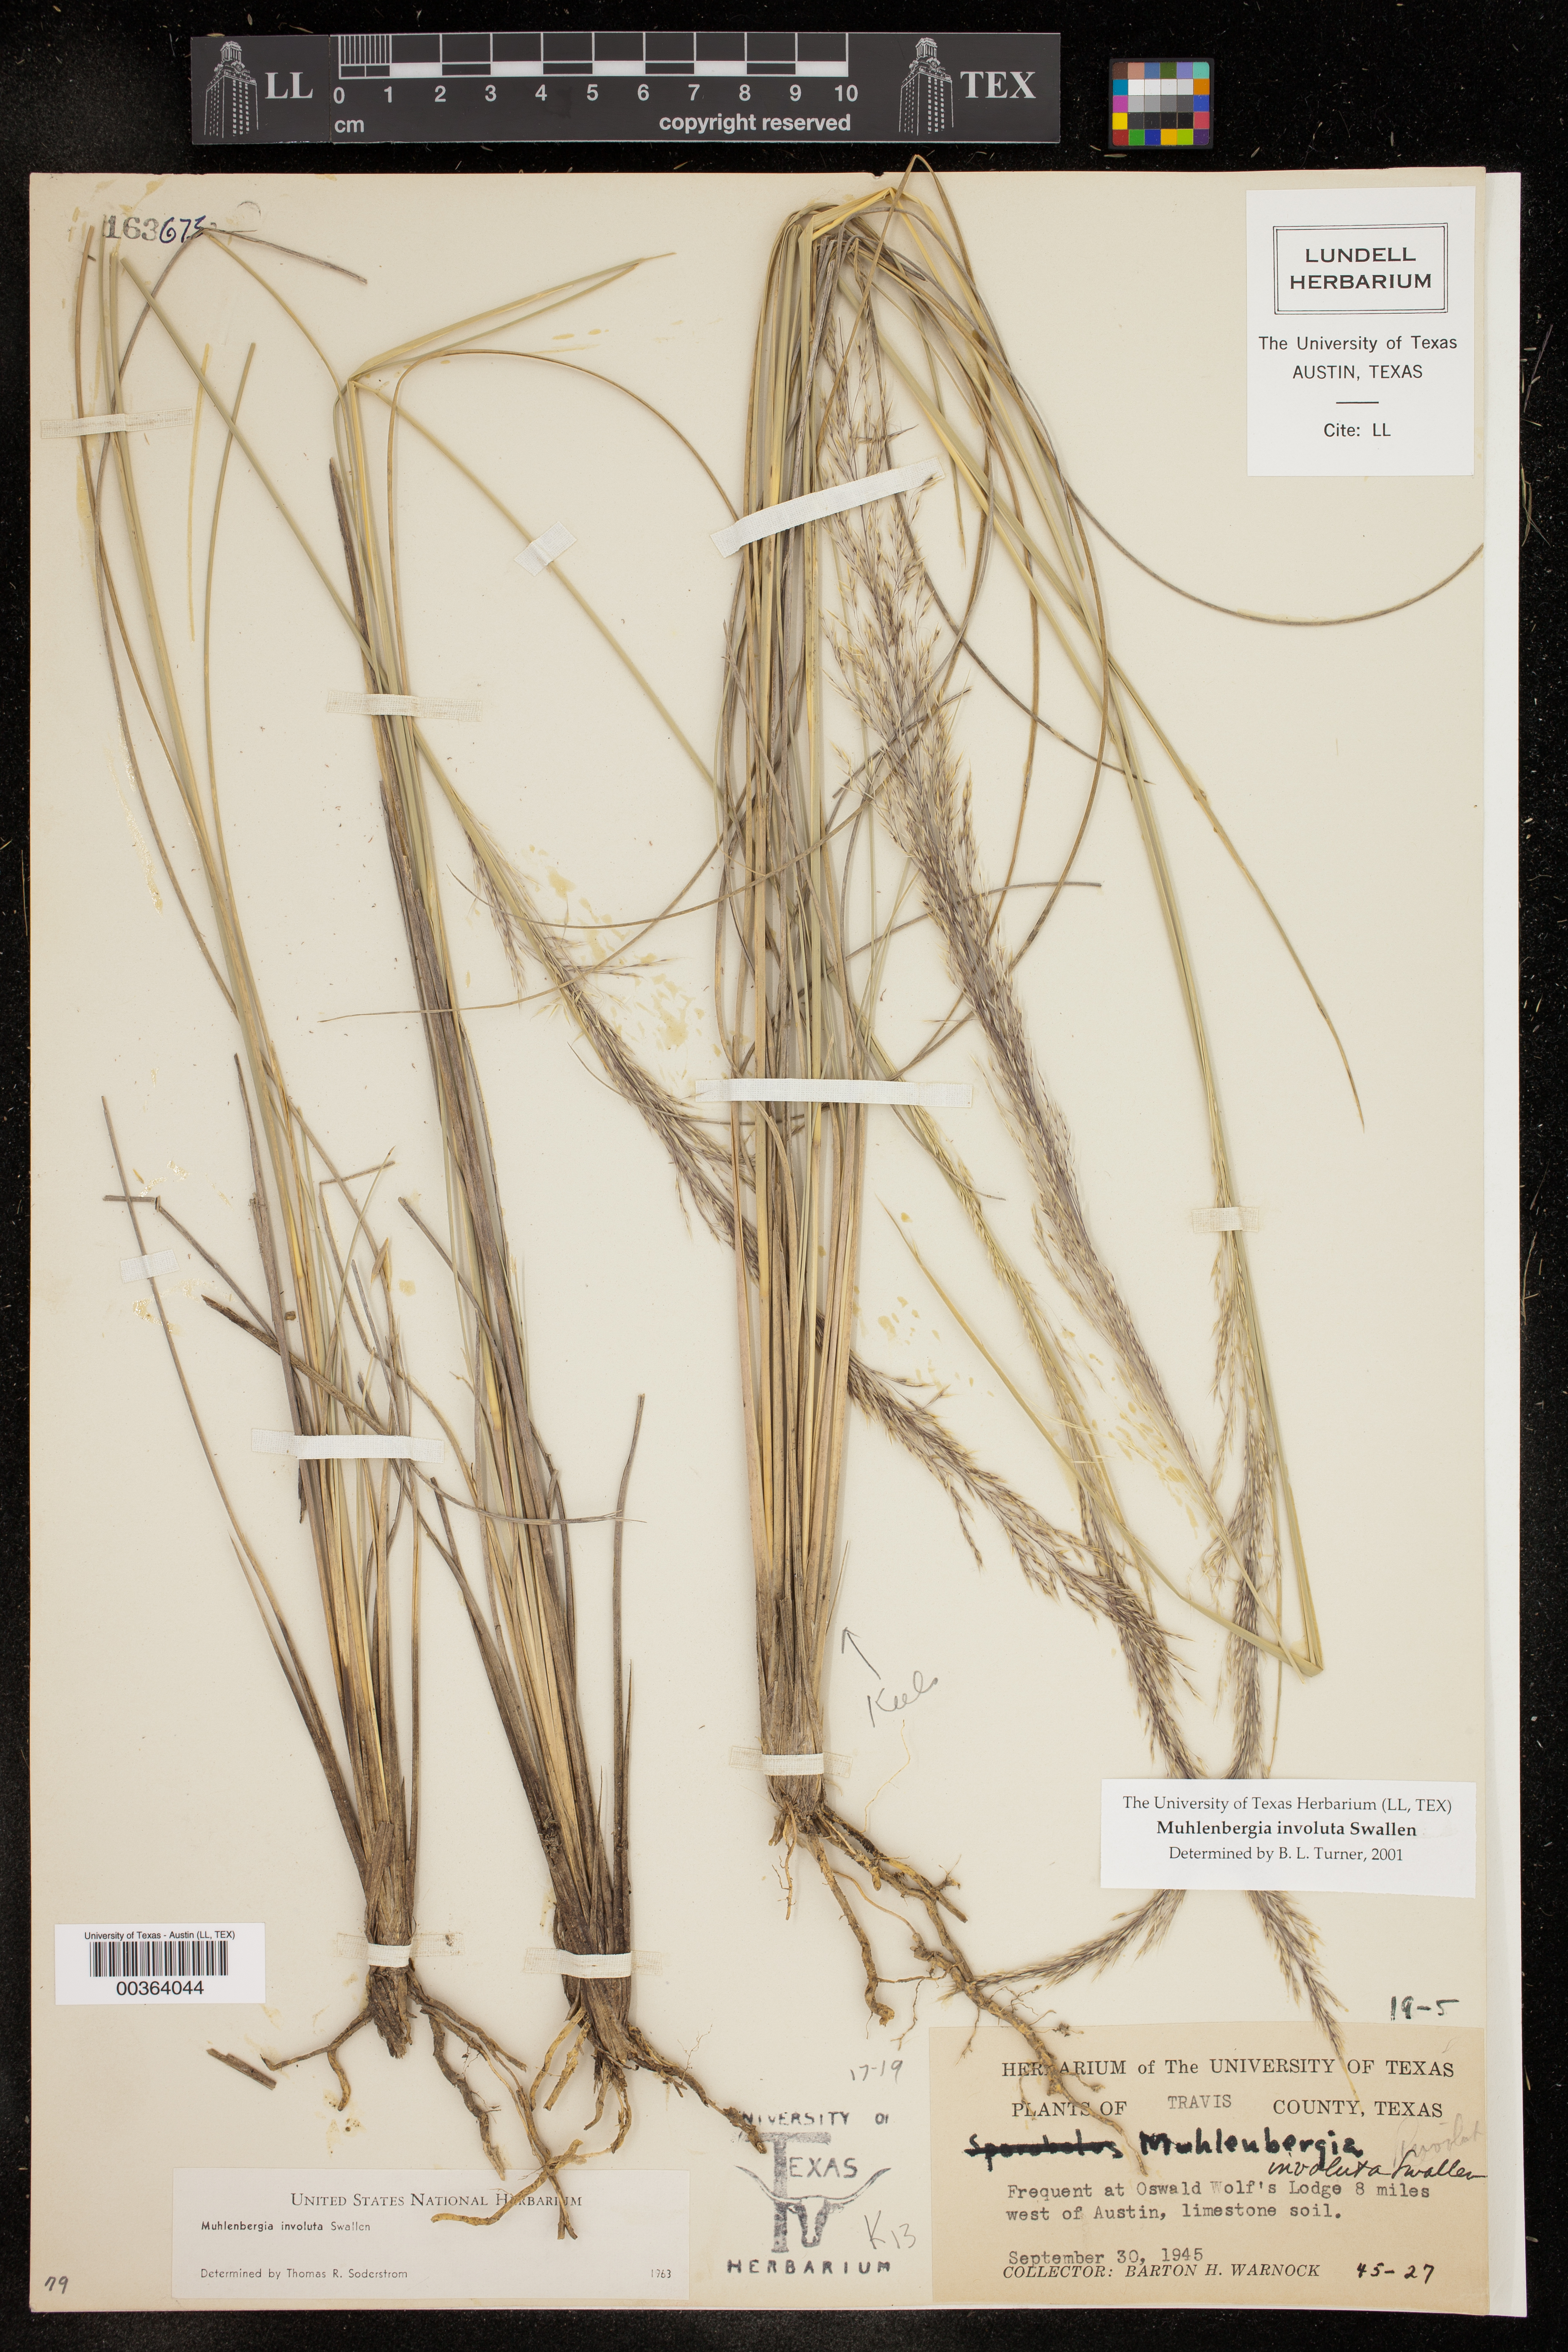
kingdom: Plantae
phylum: Tracheophyta
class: Liliopsida
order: Poales
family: Poaceae
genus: Muhlenbergia
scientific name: Muhlenbergia involuta
